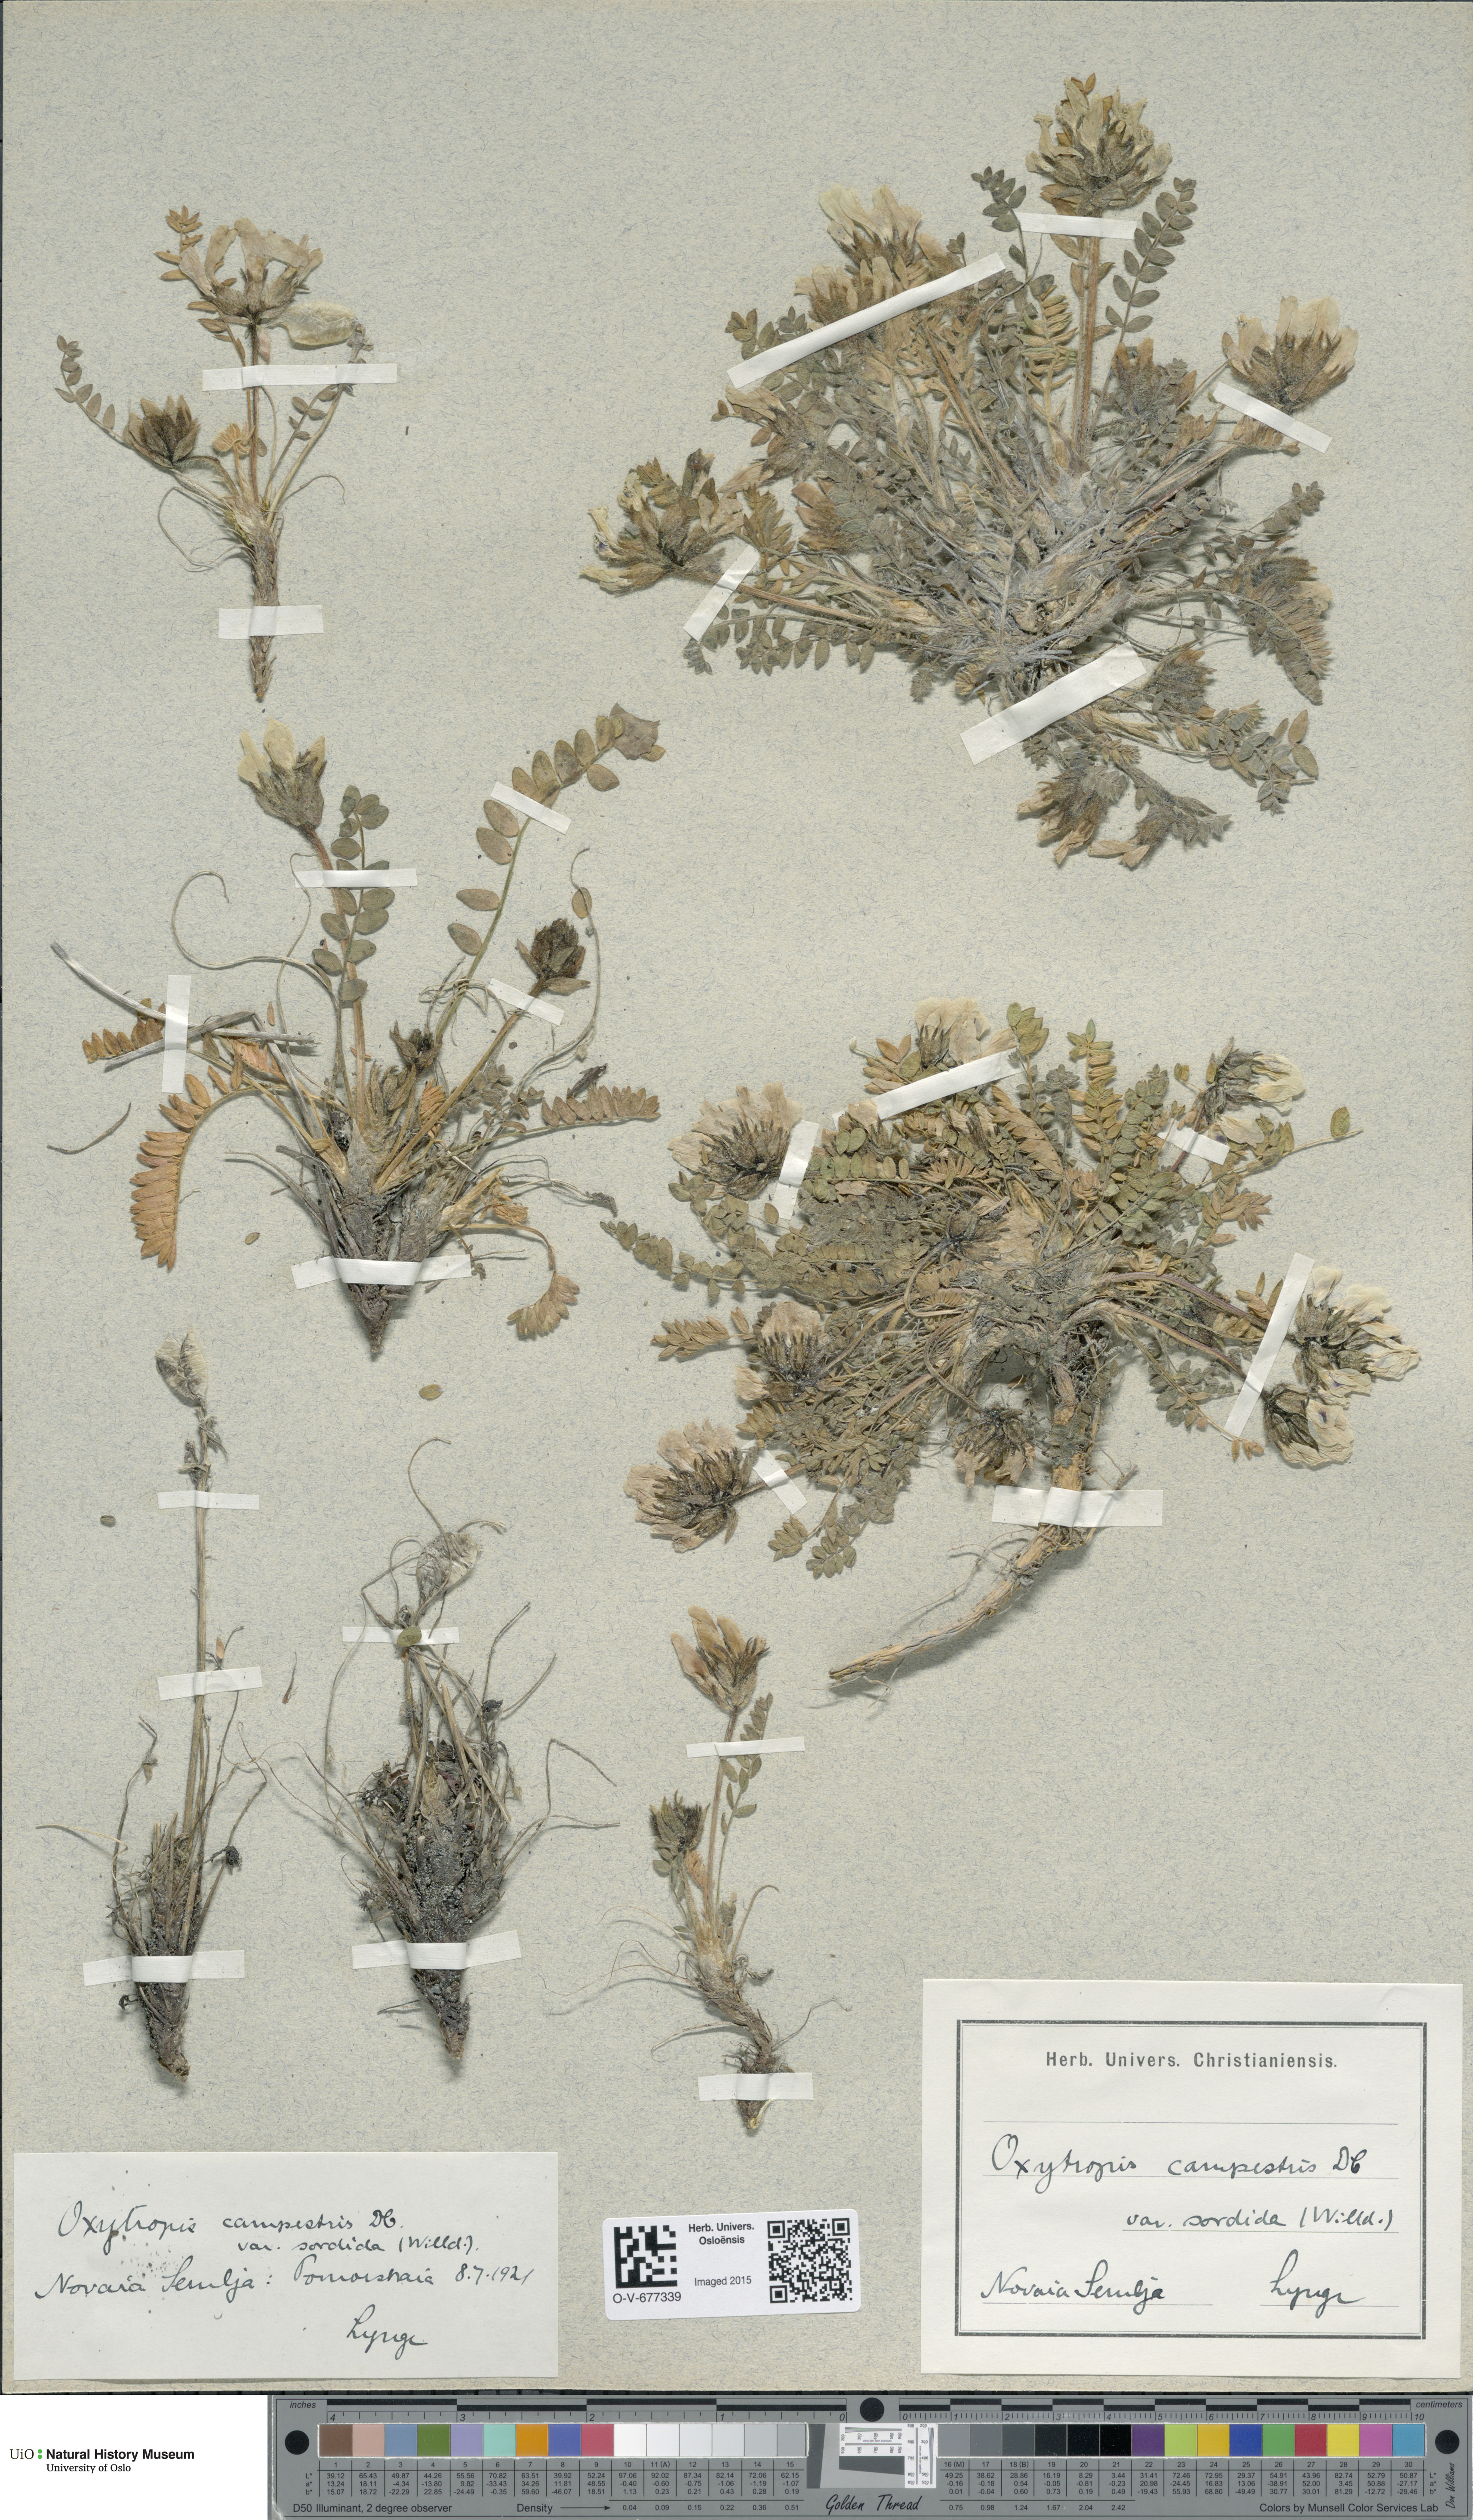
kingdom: Plantae
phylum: Tracheophyta
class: Magnoliopsida
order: Fabales
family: Fabaceae
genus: Oxytropis
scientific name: Oxytropis sordida
